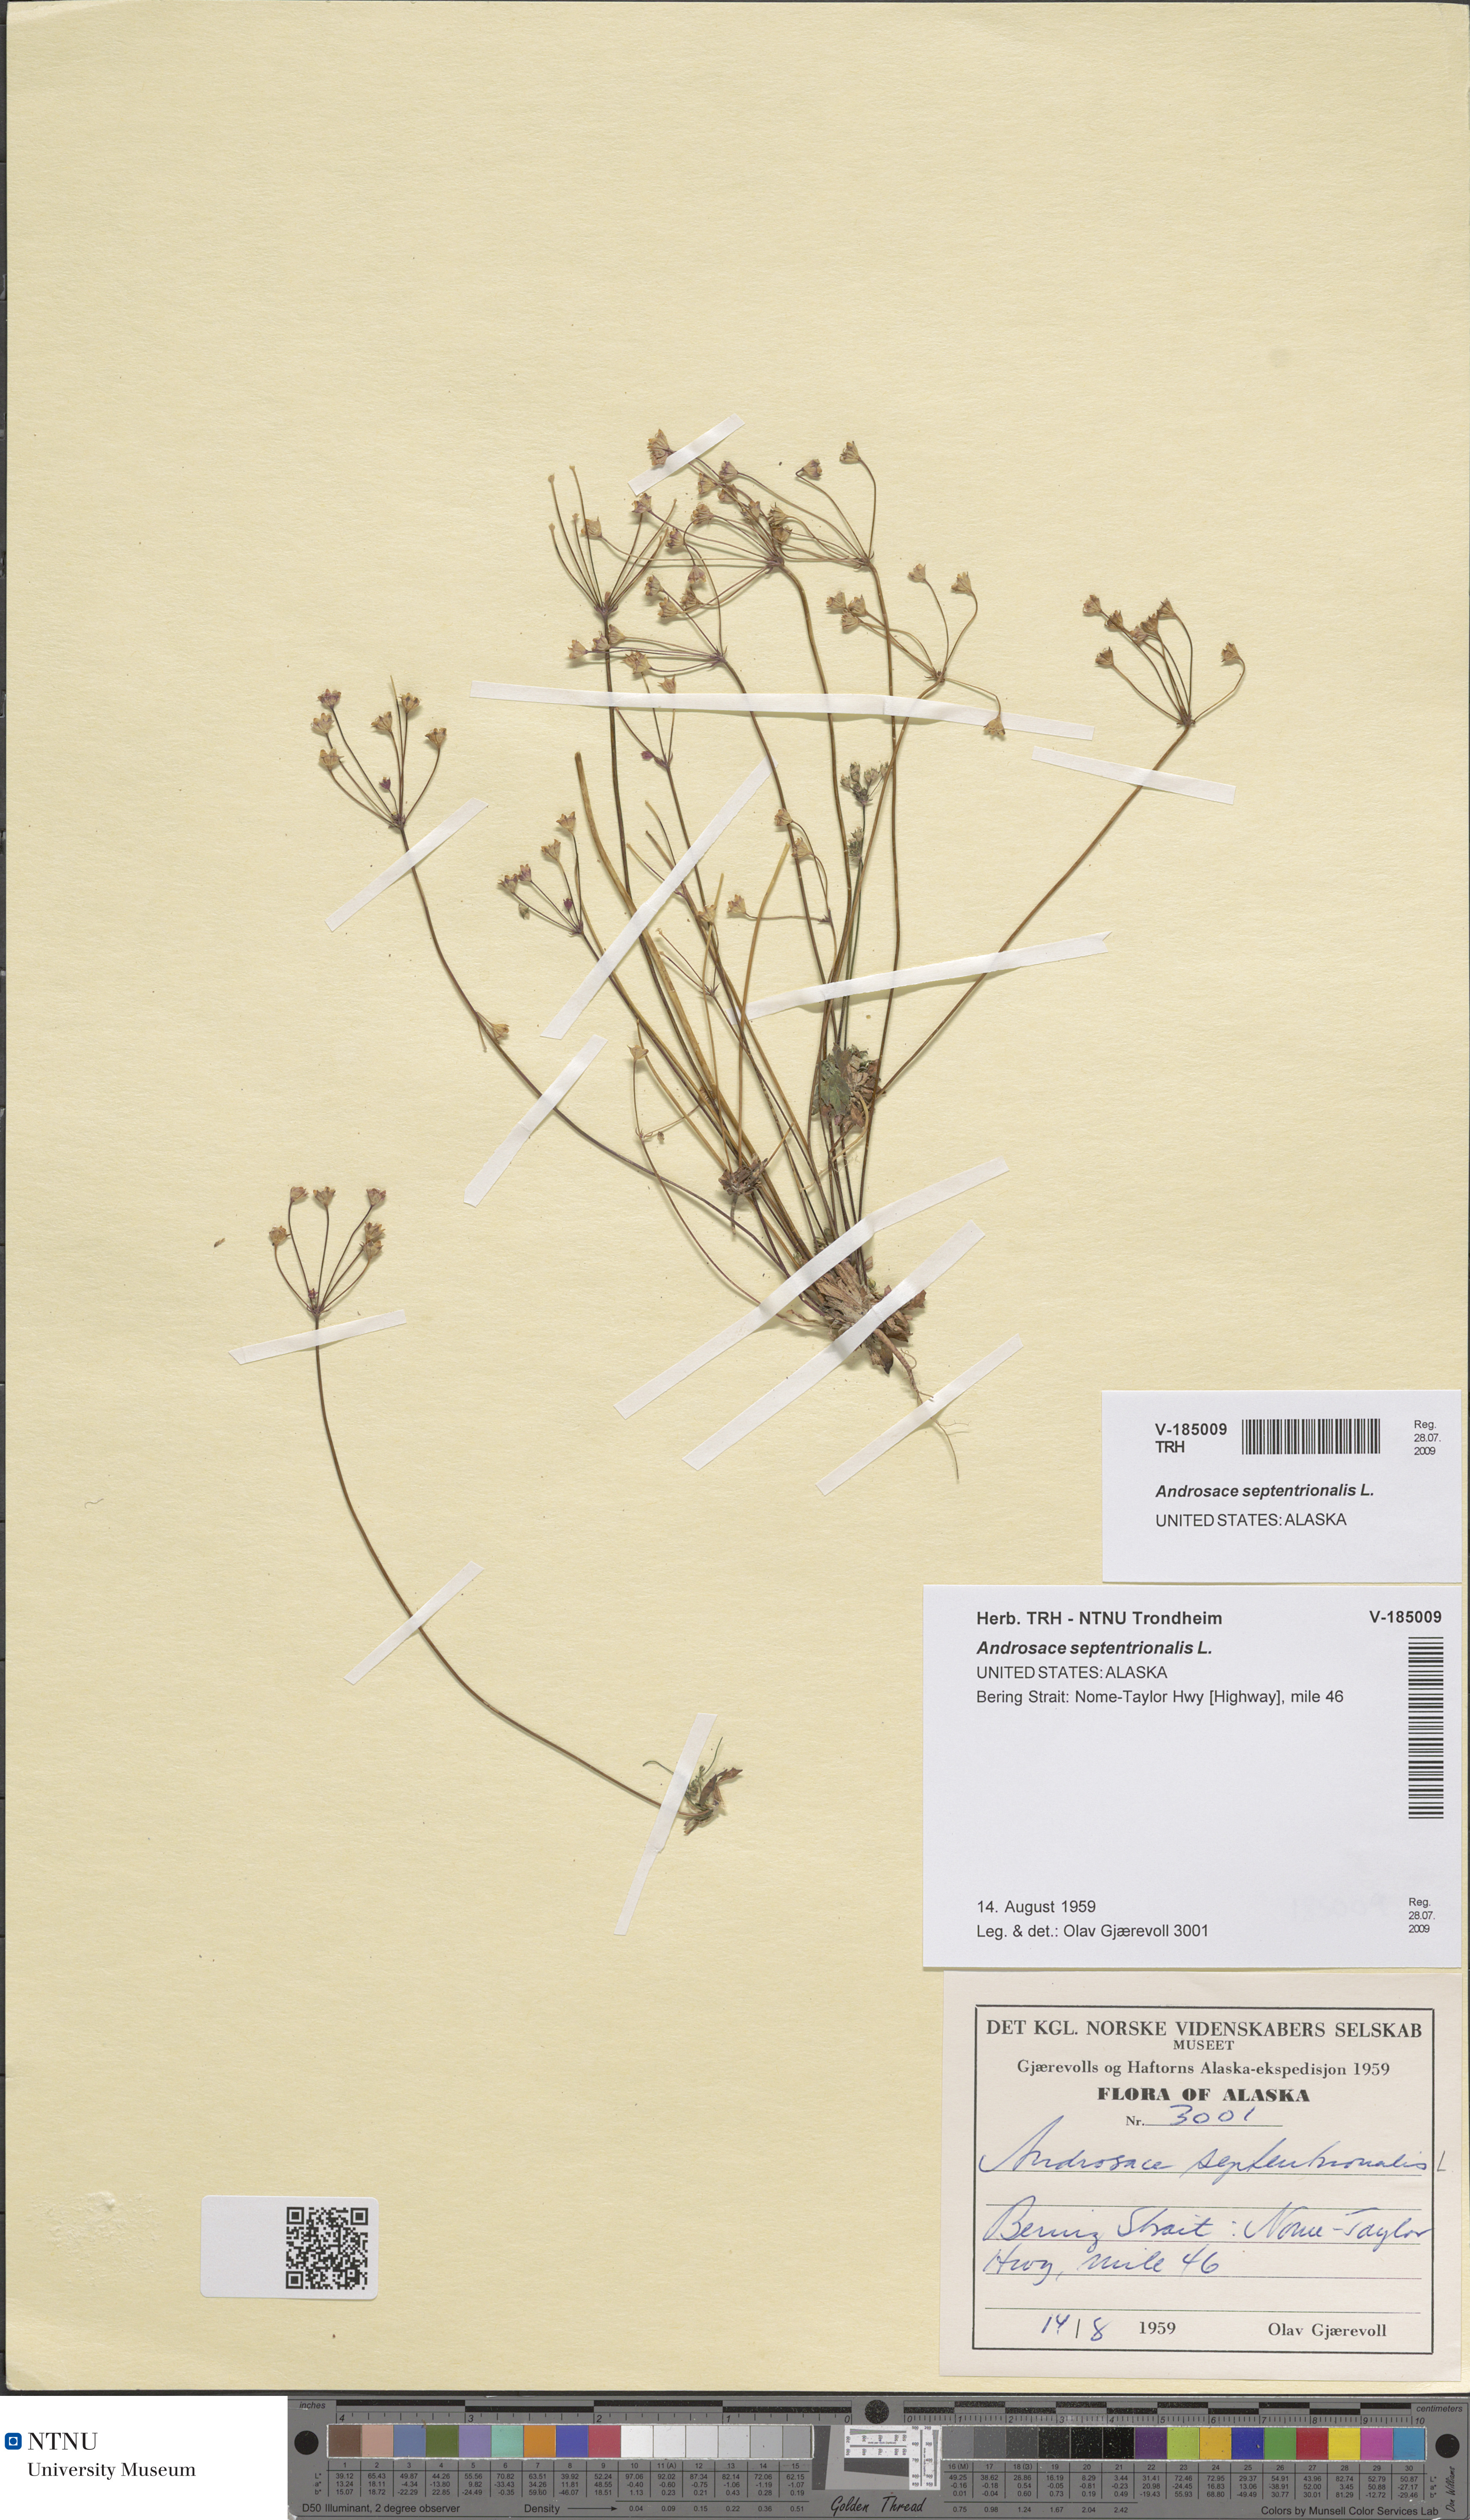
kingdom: Plantae
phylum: Tracheophyta
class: Magnoliopsida
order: Ericales
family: Primulaceae
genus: Androsace
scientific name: Androsace septentrionalis
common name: Hairy northern fairy-candelabra
